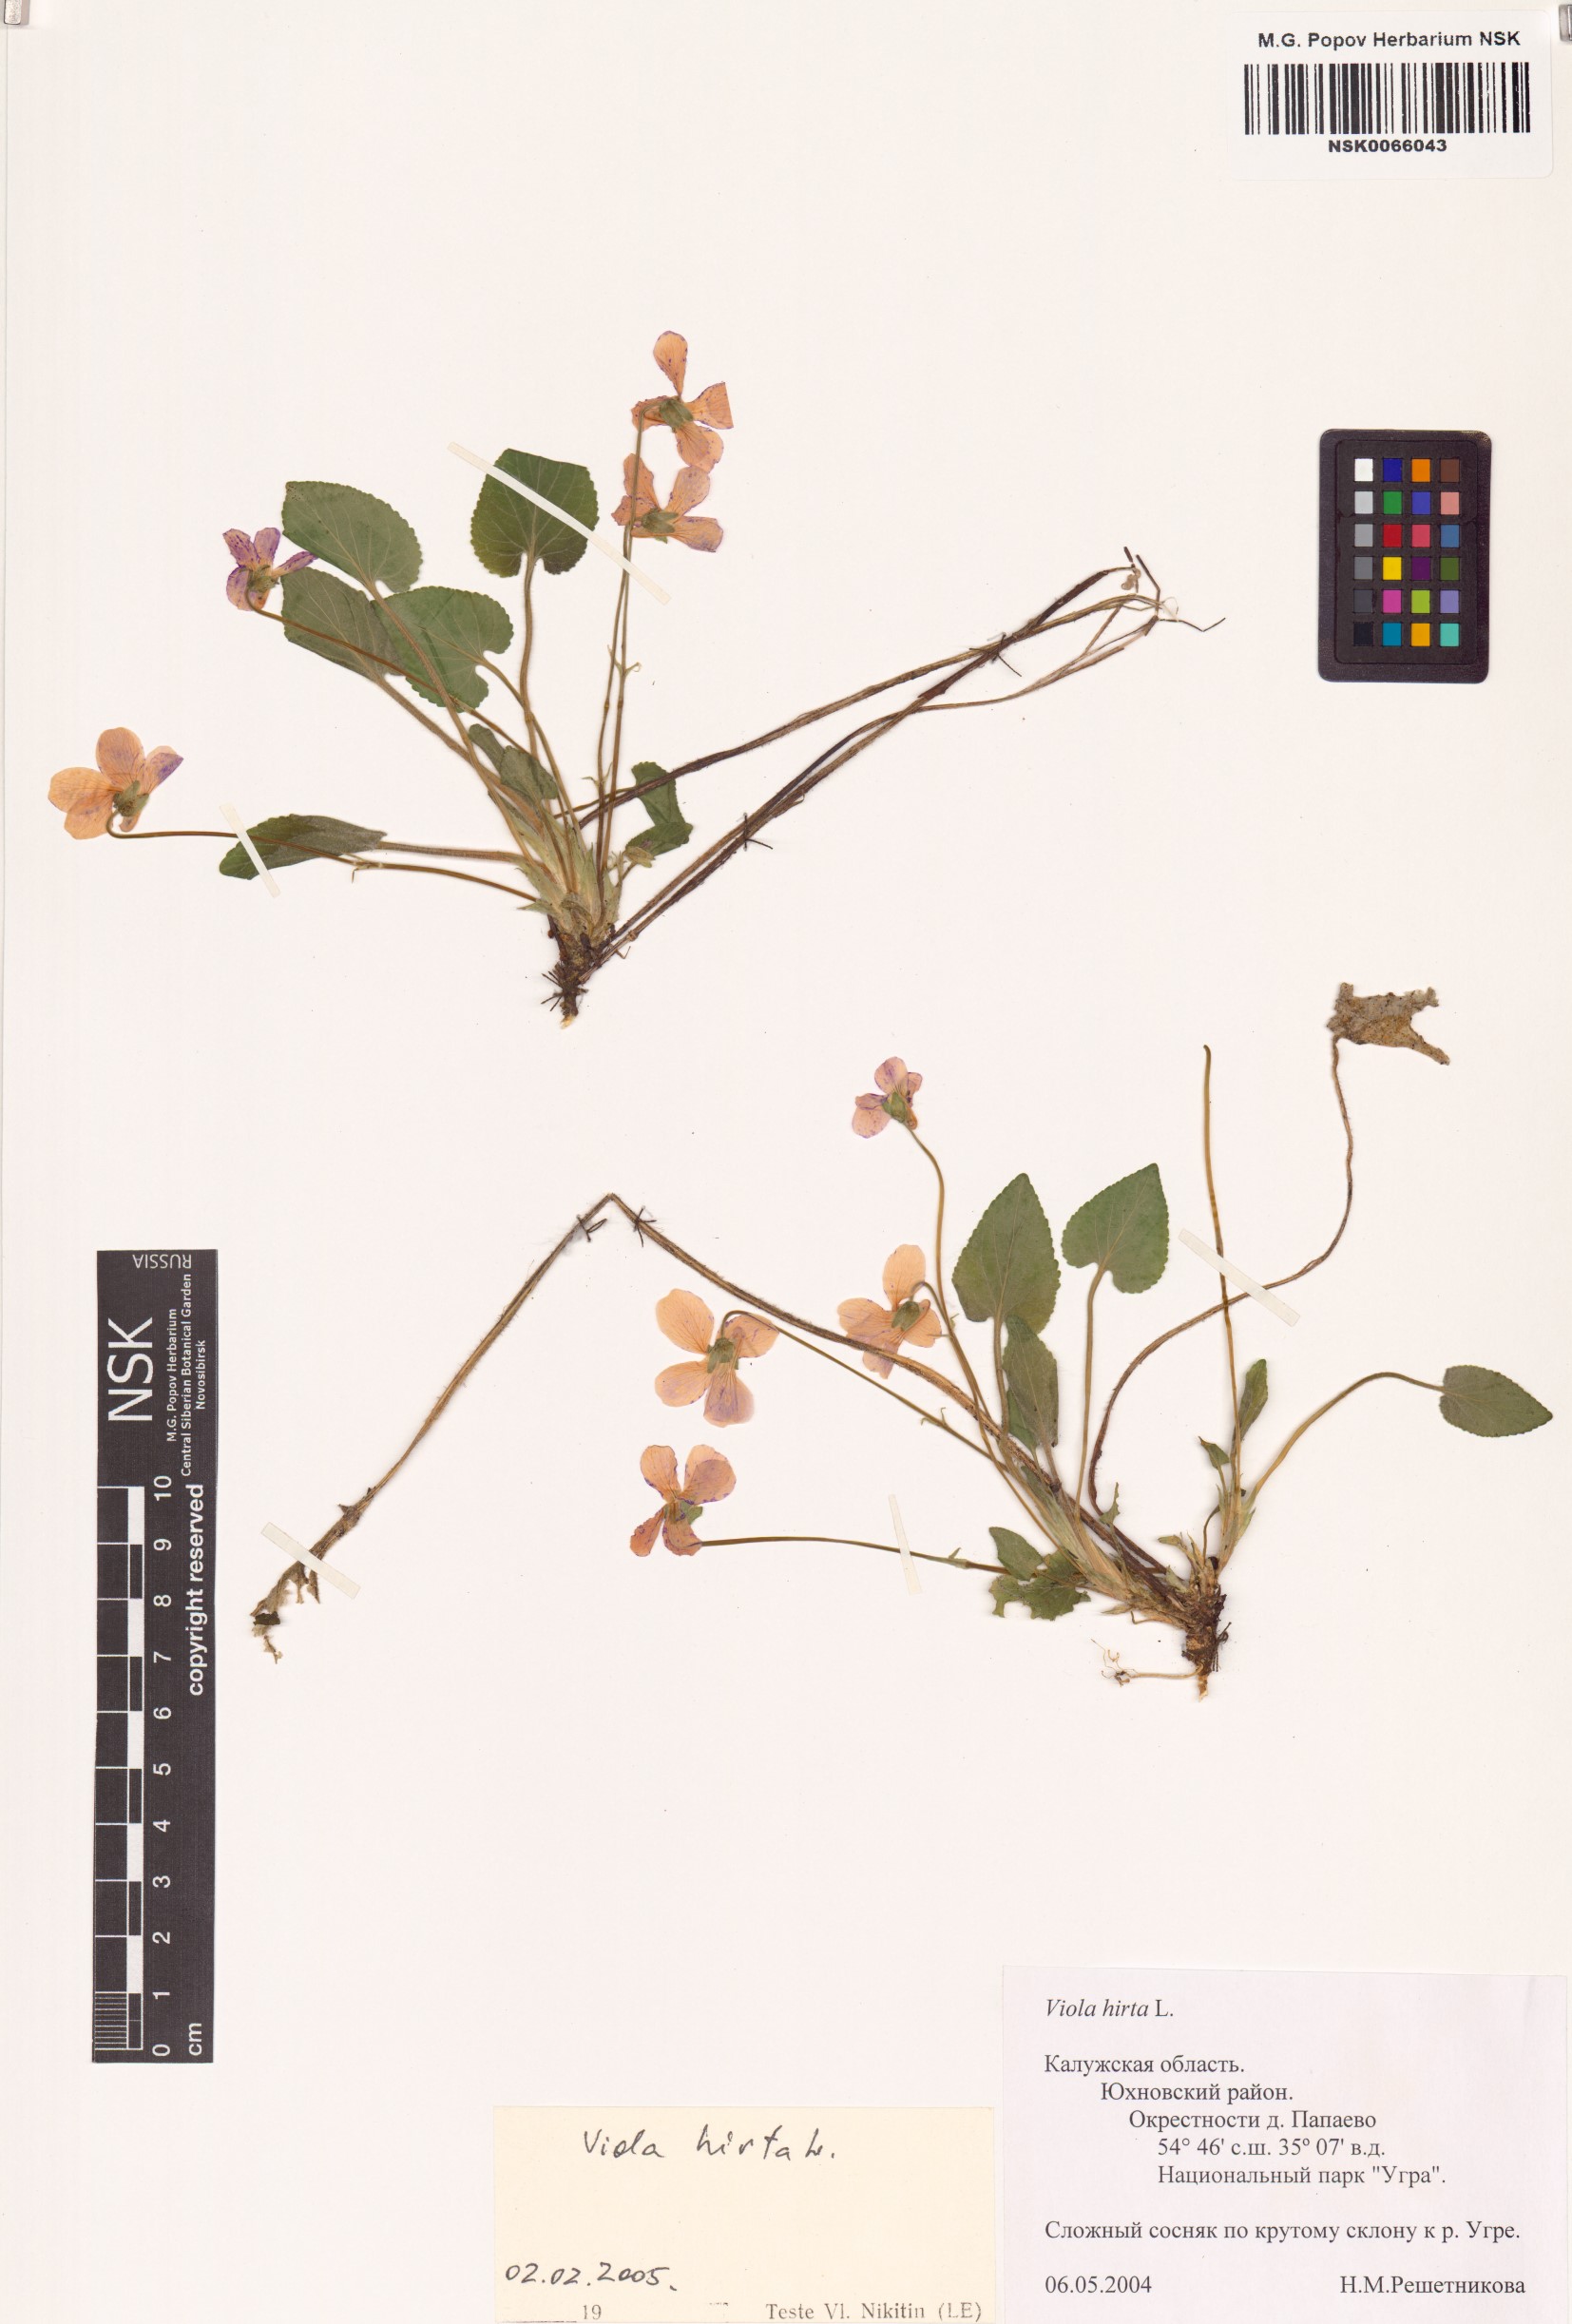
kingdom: Plantae
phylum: Tracheophyta
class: Magnoliopsida
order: Malpighiales
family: Violaceae
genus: Viola
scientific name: Viola hirta
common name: Hairy violet
